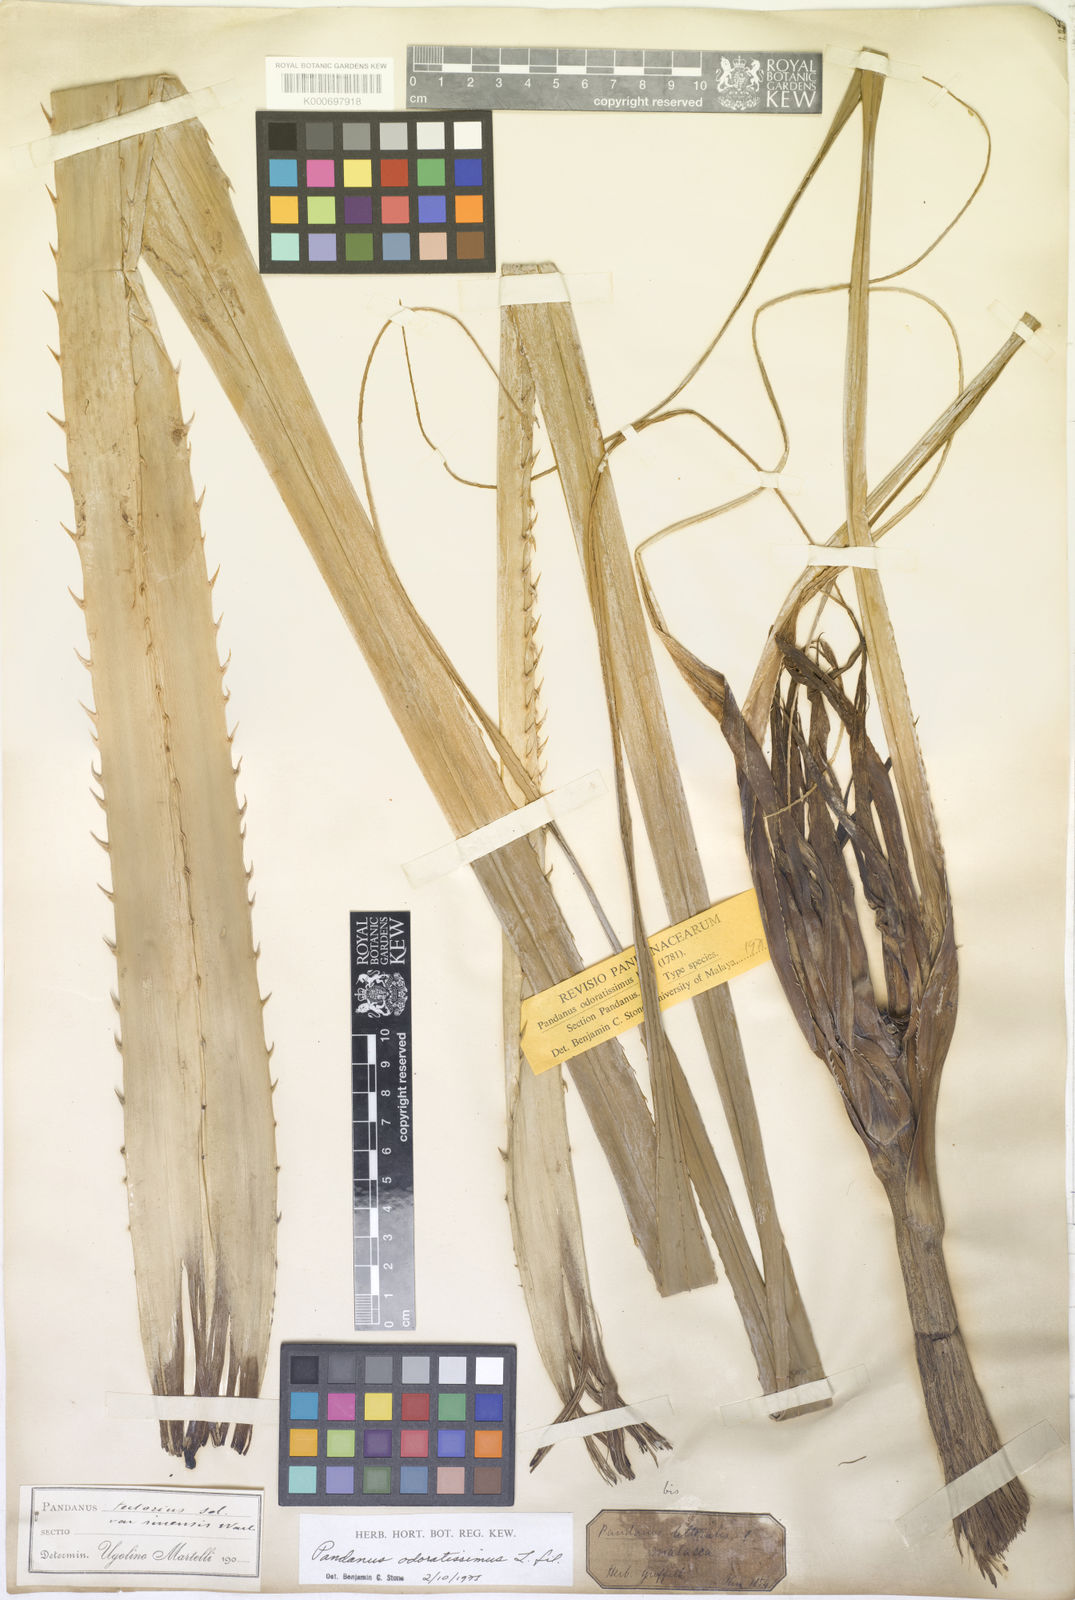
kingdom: Plantae
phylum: Tracheophyta
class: Liliopsida
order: Pandanales
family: Pandanaceae
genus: Pandanus
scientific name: Pandanus odorifer
